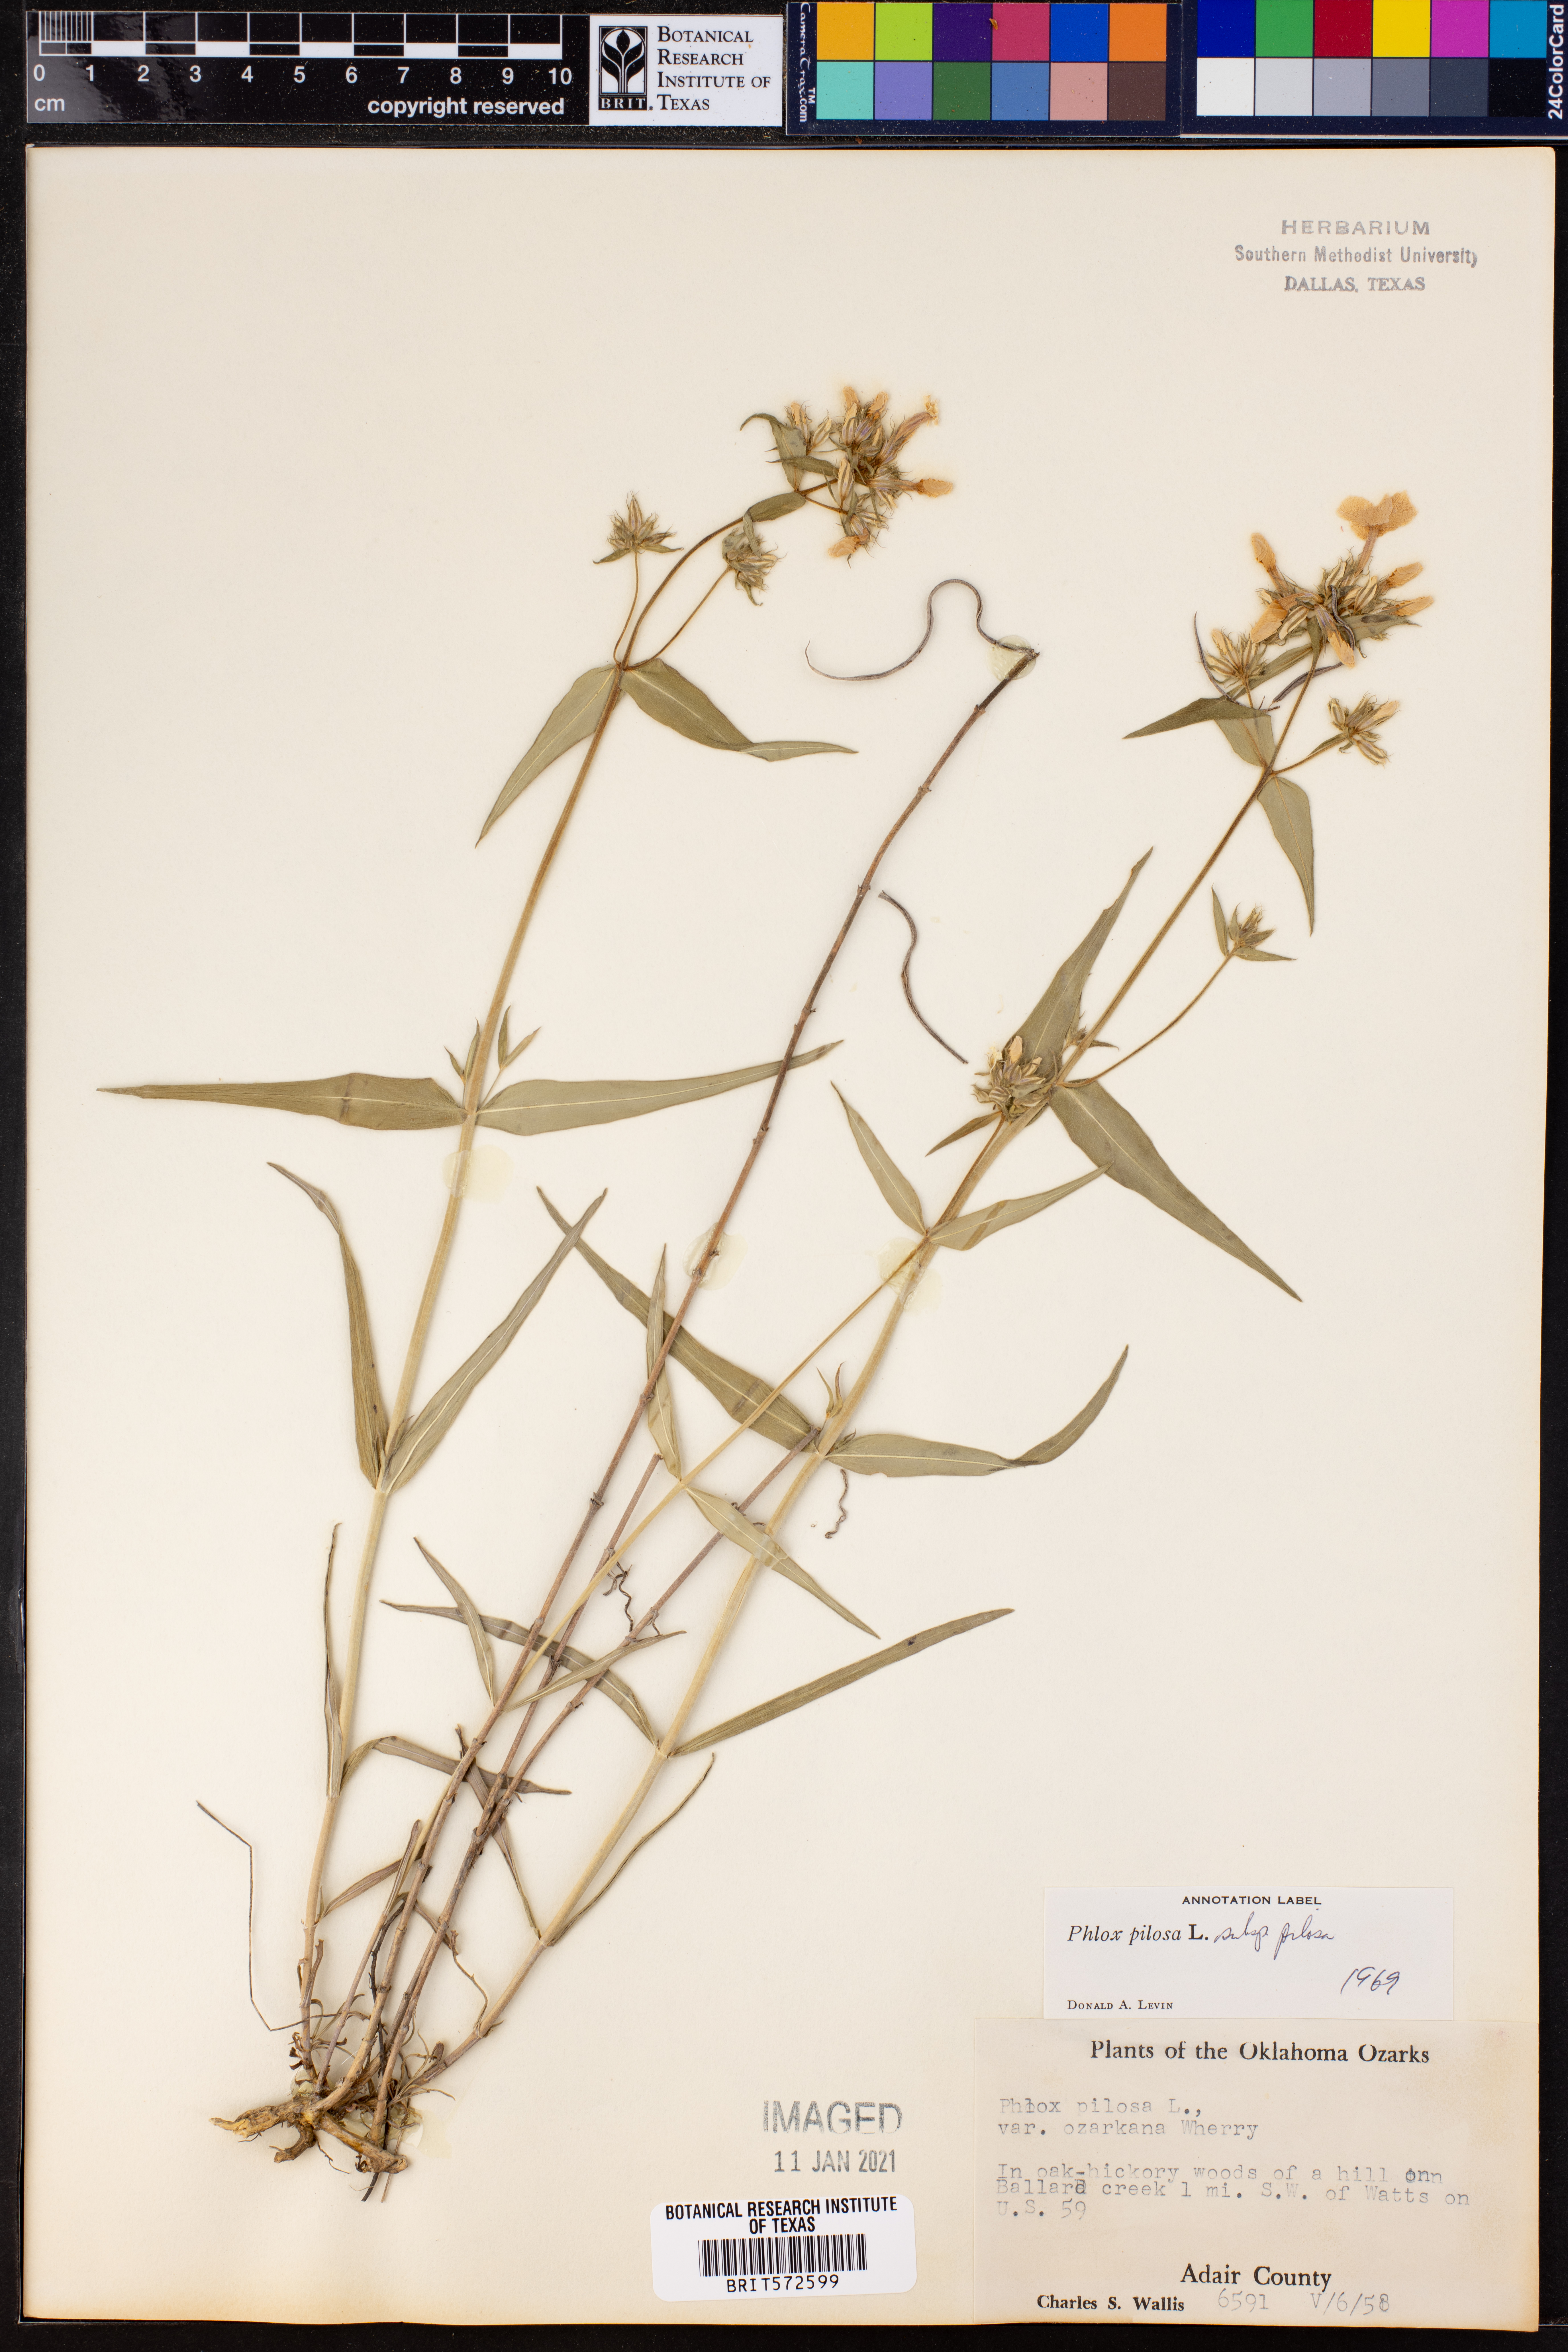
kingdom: Plantae
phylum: Tracheophyta
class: Magnoliopsida
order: Ericales
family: Polemoniaceae
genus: Phlox
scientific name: Phlox pilosa
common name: Prairie phlox
